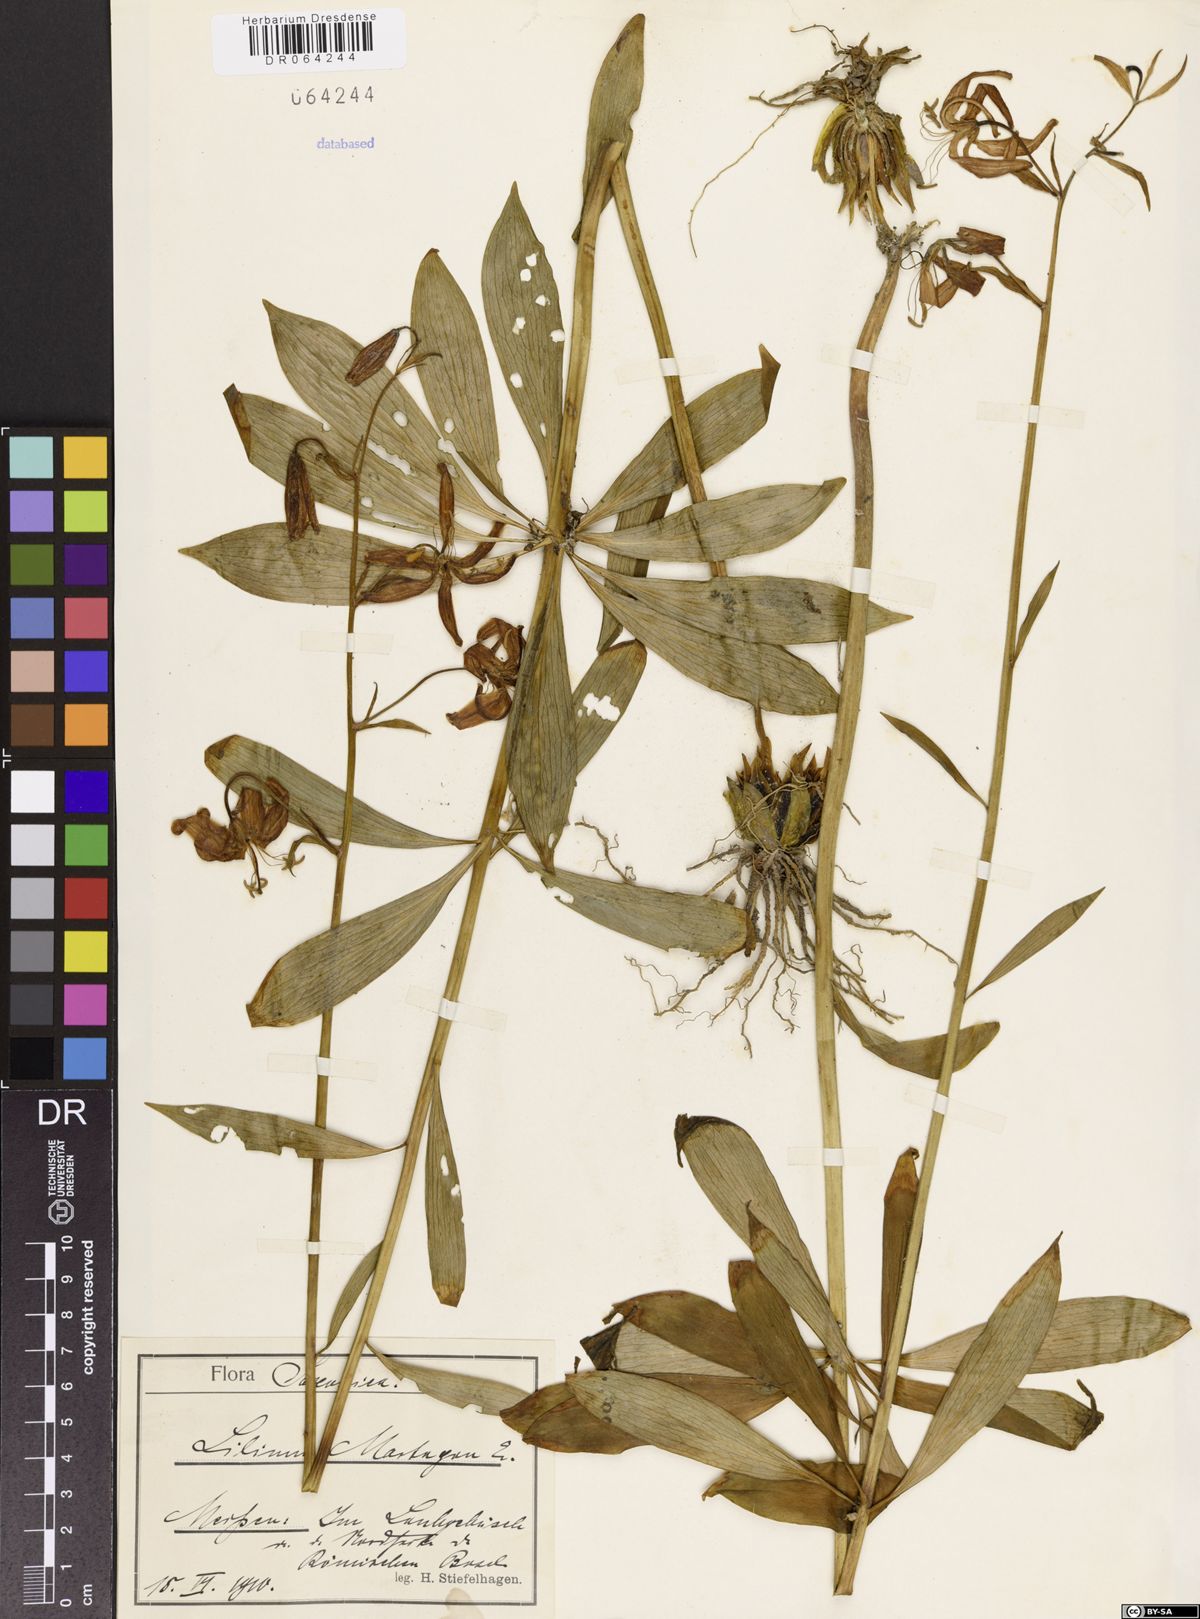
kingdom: Plantae
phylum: Tracheophyta
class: Liliopsida
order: Liliales
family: Liliaceae
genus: Lilium
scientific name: Lilium martagon
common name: Martagon lily
